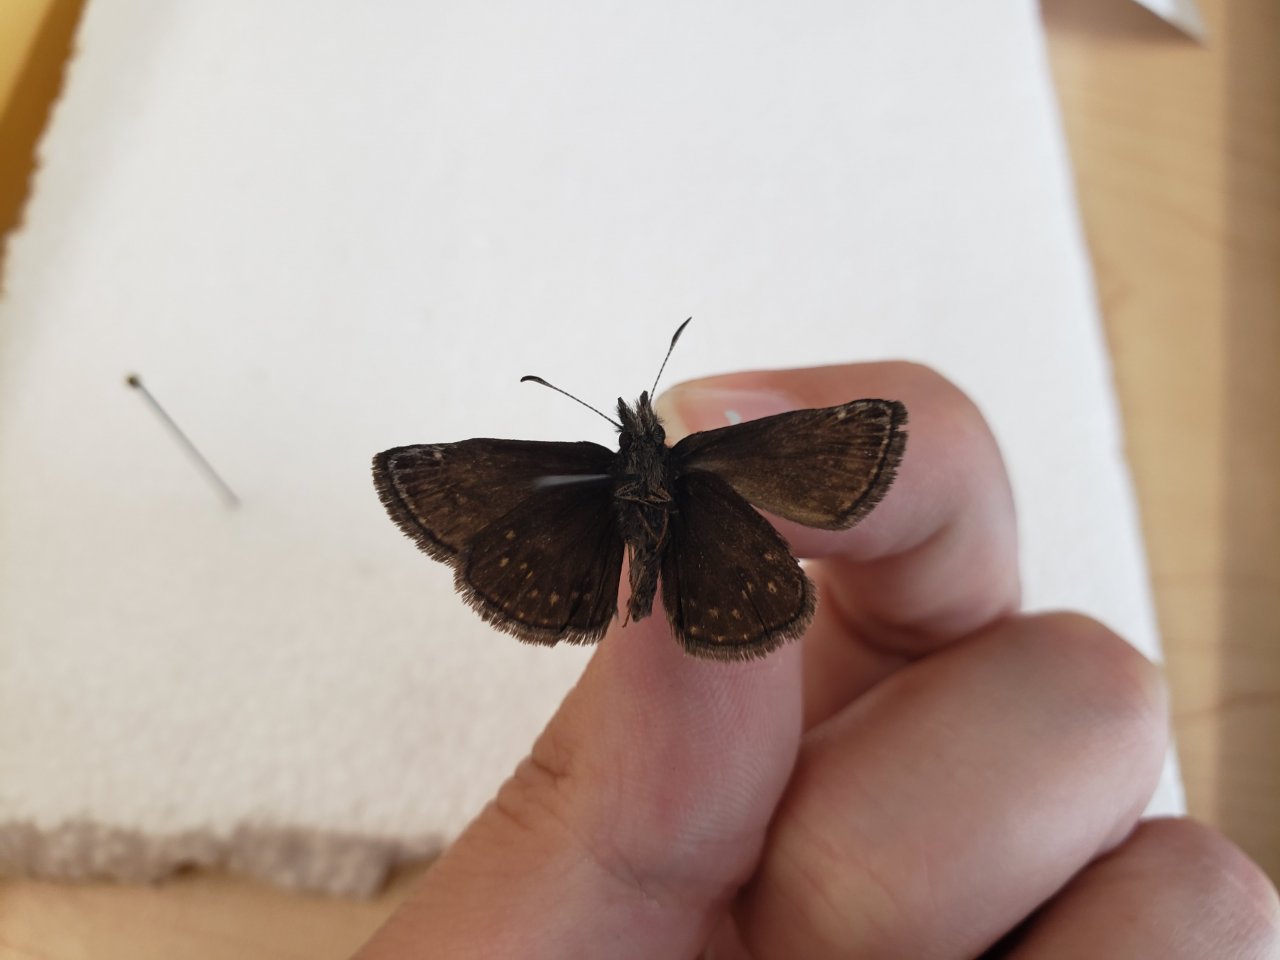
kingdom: Animalia
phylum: Arthropoda
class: Insecta
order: Lepidoptera
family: Hesperiidae
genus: Erynnis
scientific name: Erynnis icelus
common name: Dreamy Duskywing
